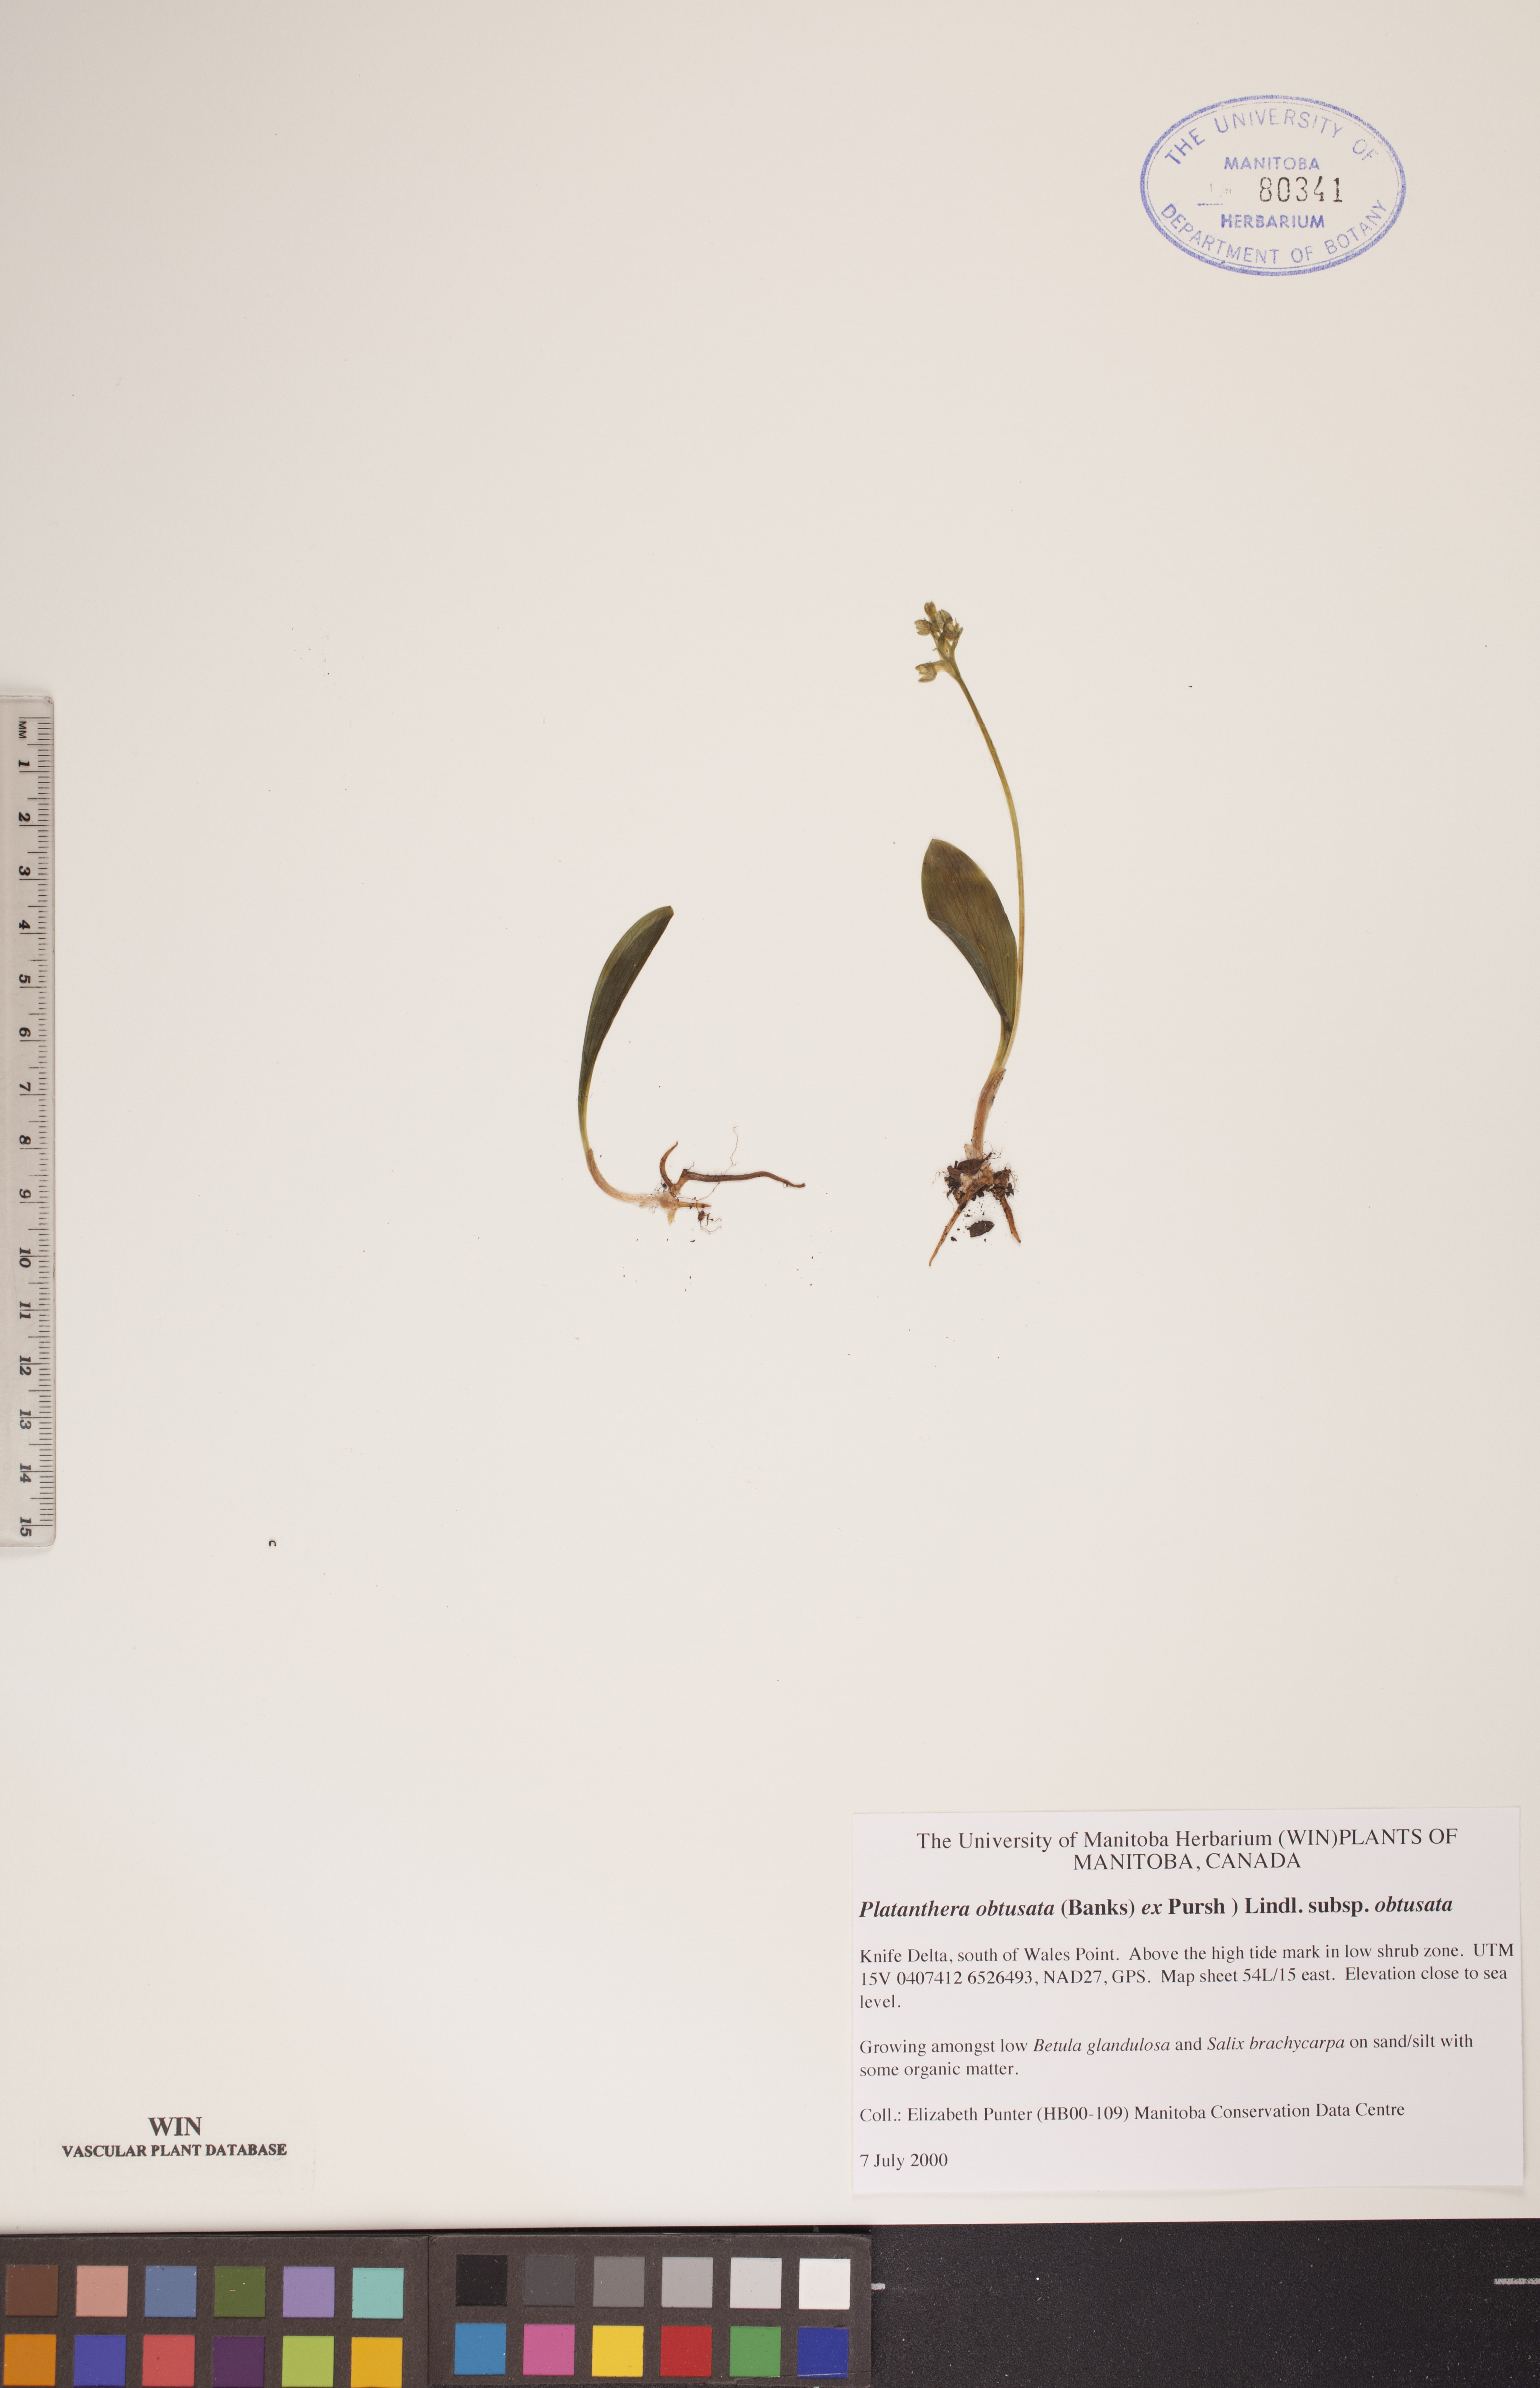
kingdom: Plantae
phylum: Tracheophyta
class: Liliopsida
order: Asparagales
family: Orchidaceae
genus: Platanthera
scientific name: Platanthera obtusata
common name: Blunt bog orchid
